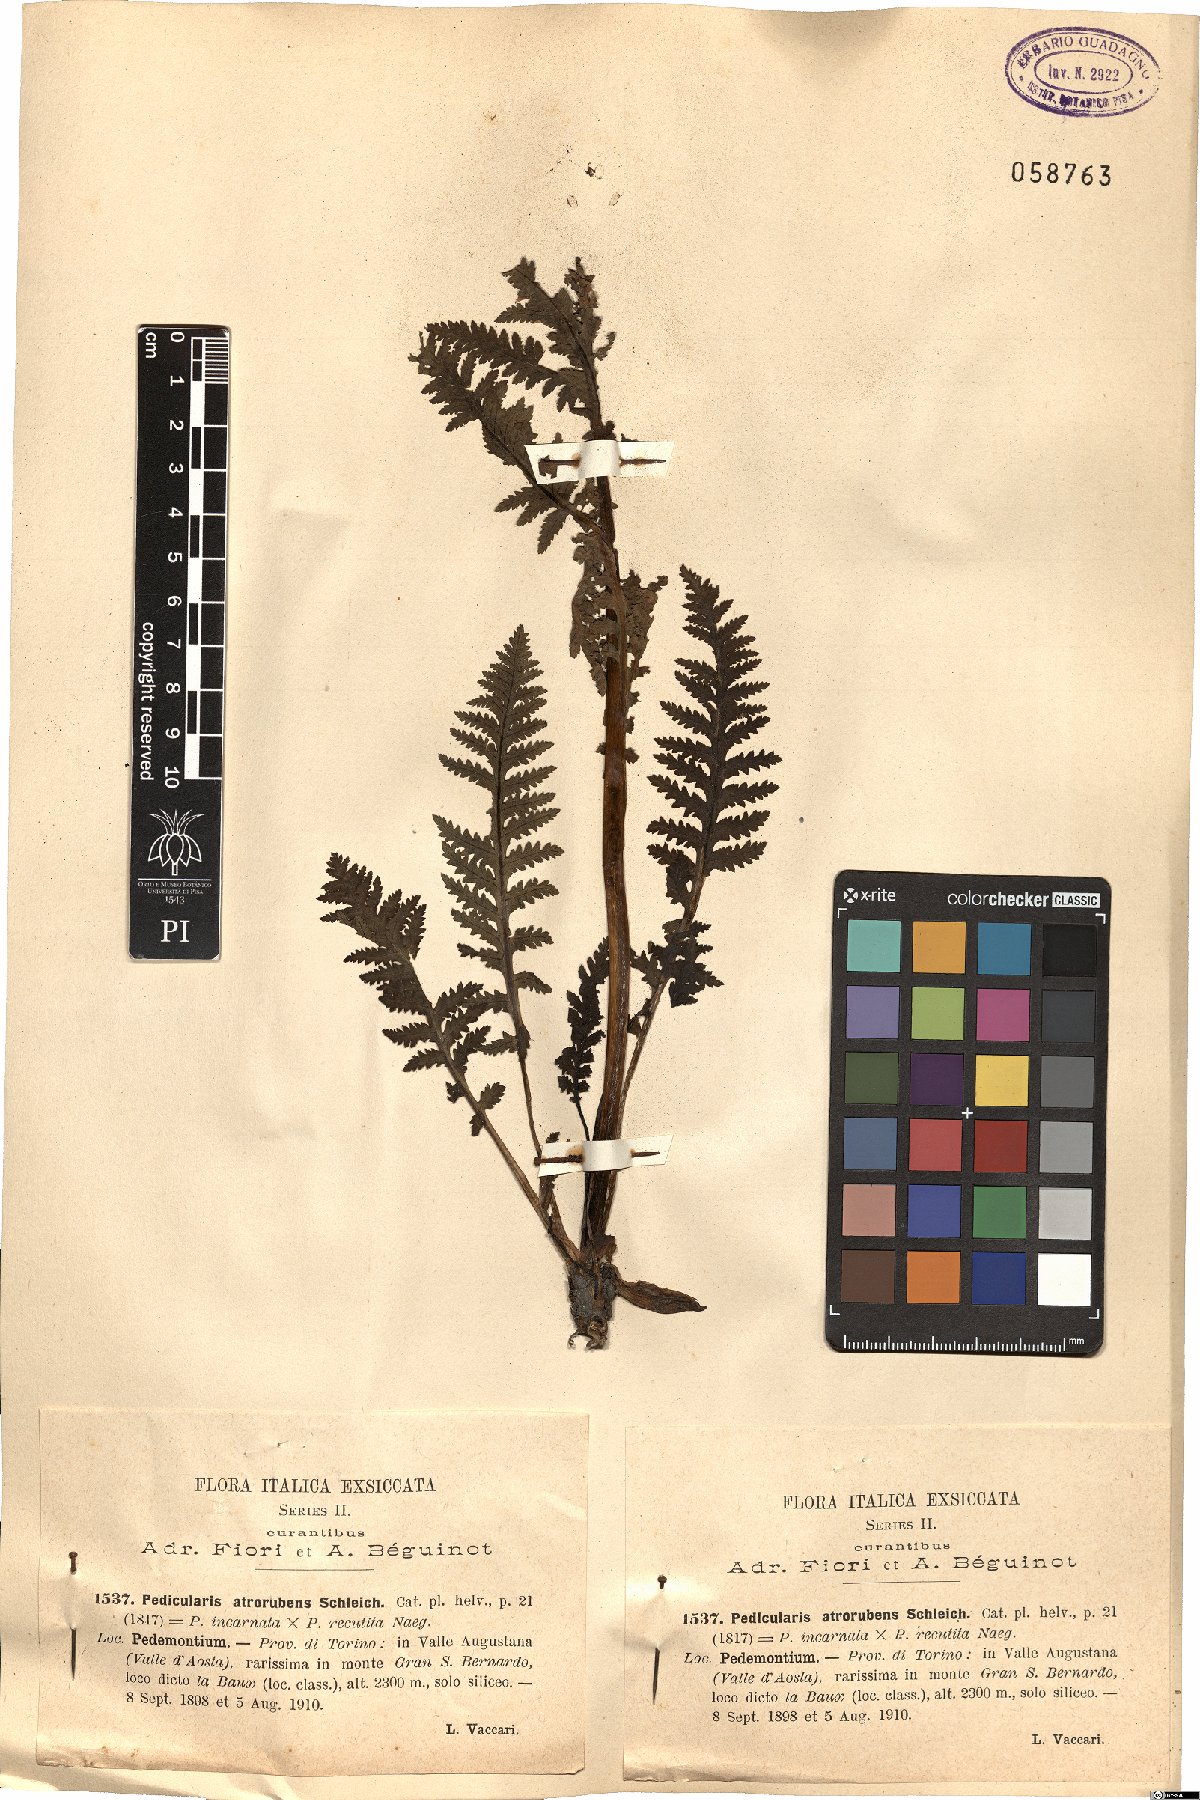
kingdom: Plantae
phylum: Tracheophyta
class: Magnoliopsida
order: Lamiales
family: Orobanchaceae
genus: Pedicularis
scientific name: Pedicularis pennina
